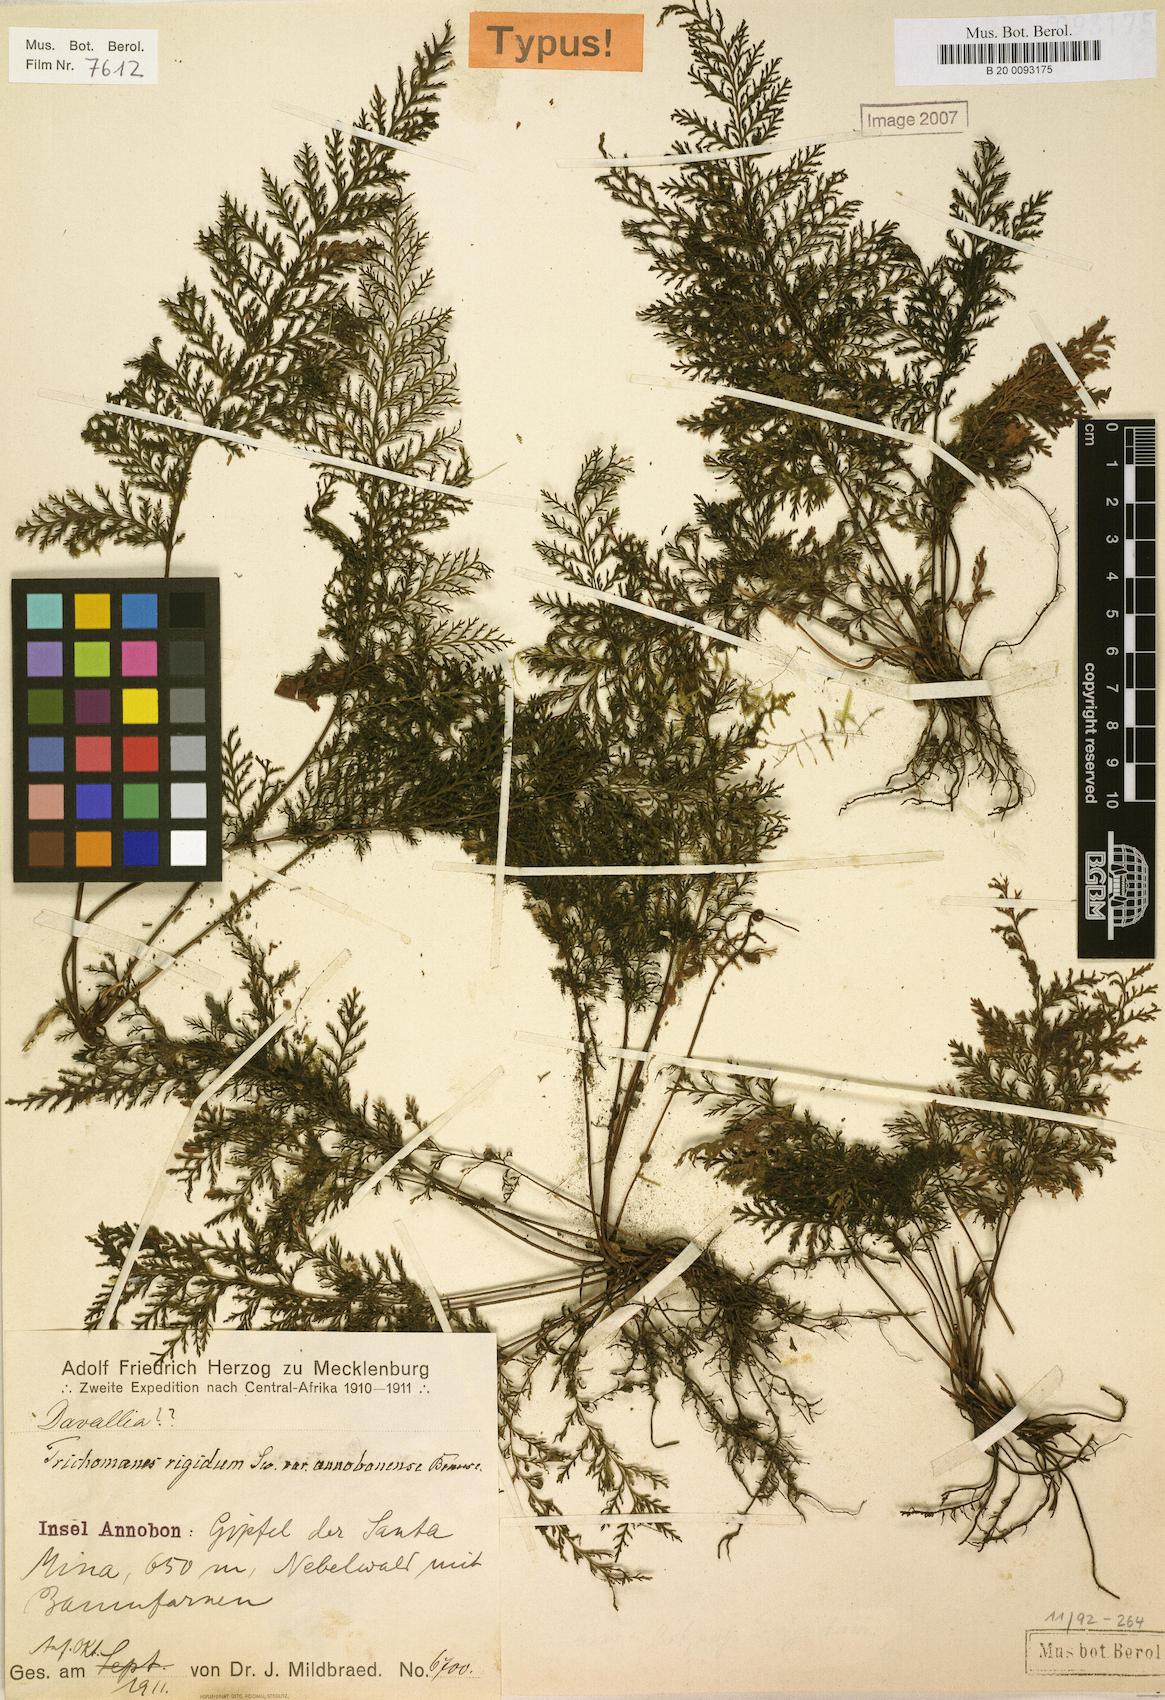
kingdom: Plantae
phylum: Tracheophyta
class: Polypodiopsida
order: Hymenophyllales
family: Hymenophyllaceae
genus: Abrodictyum
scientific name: Abrodictyum dregei
